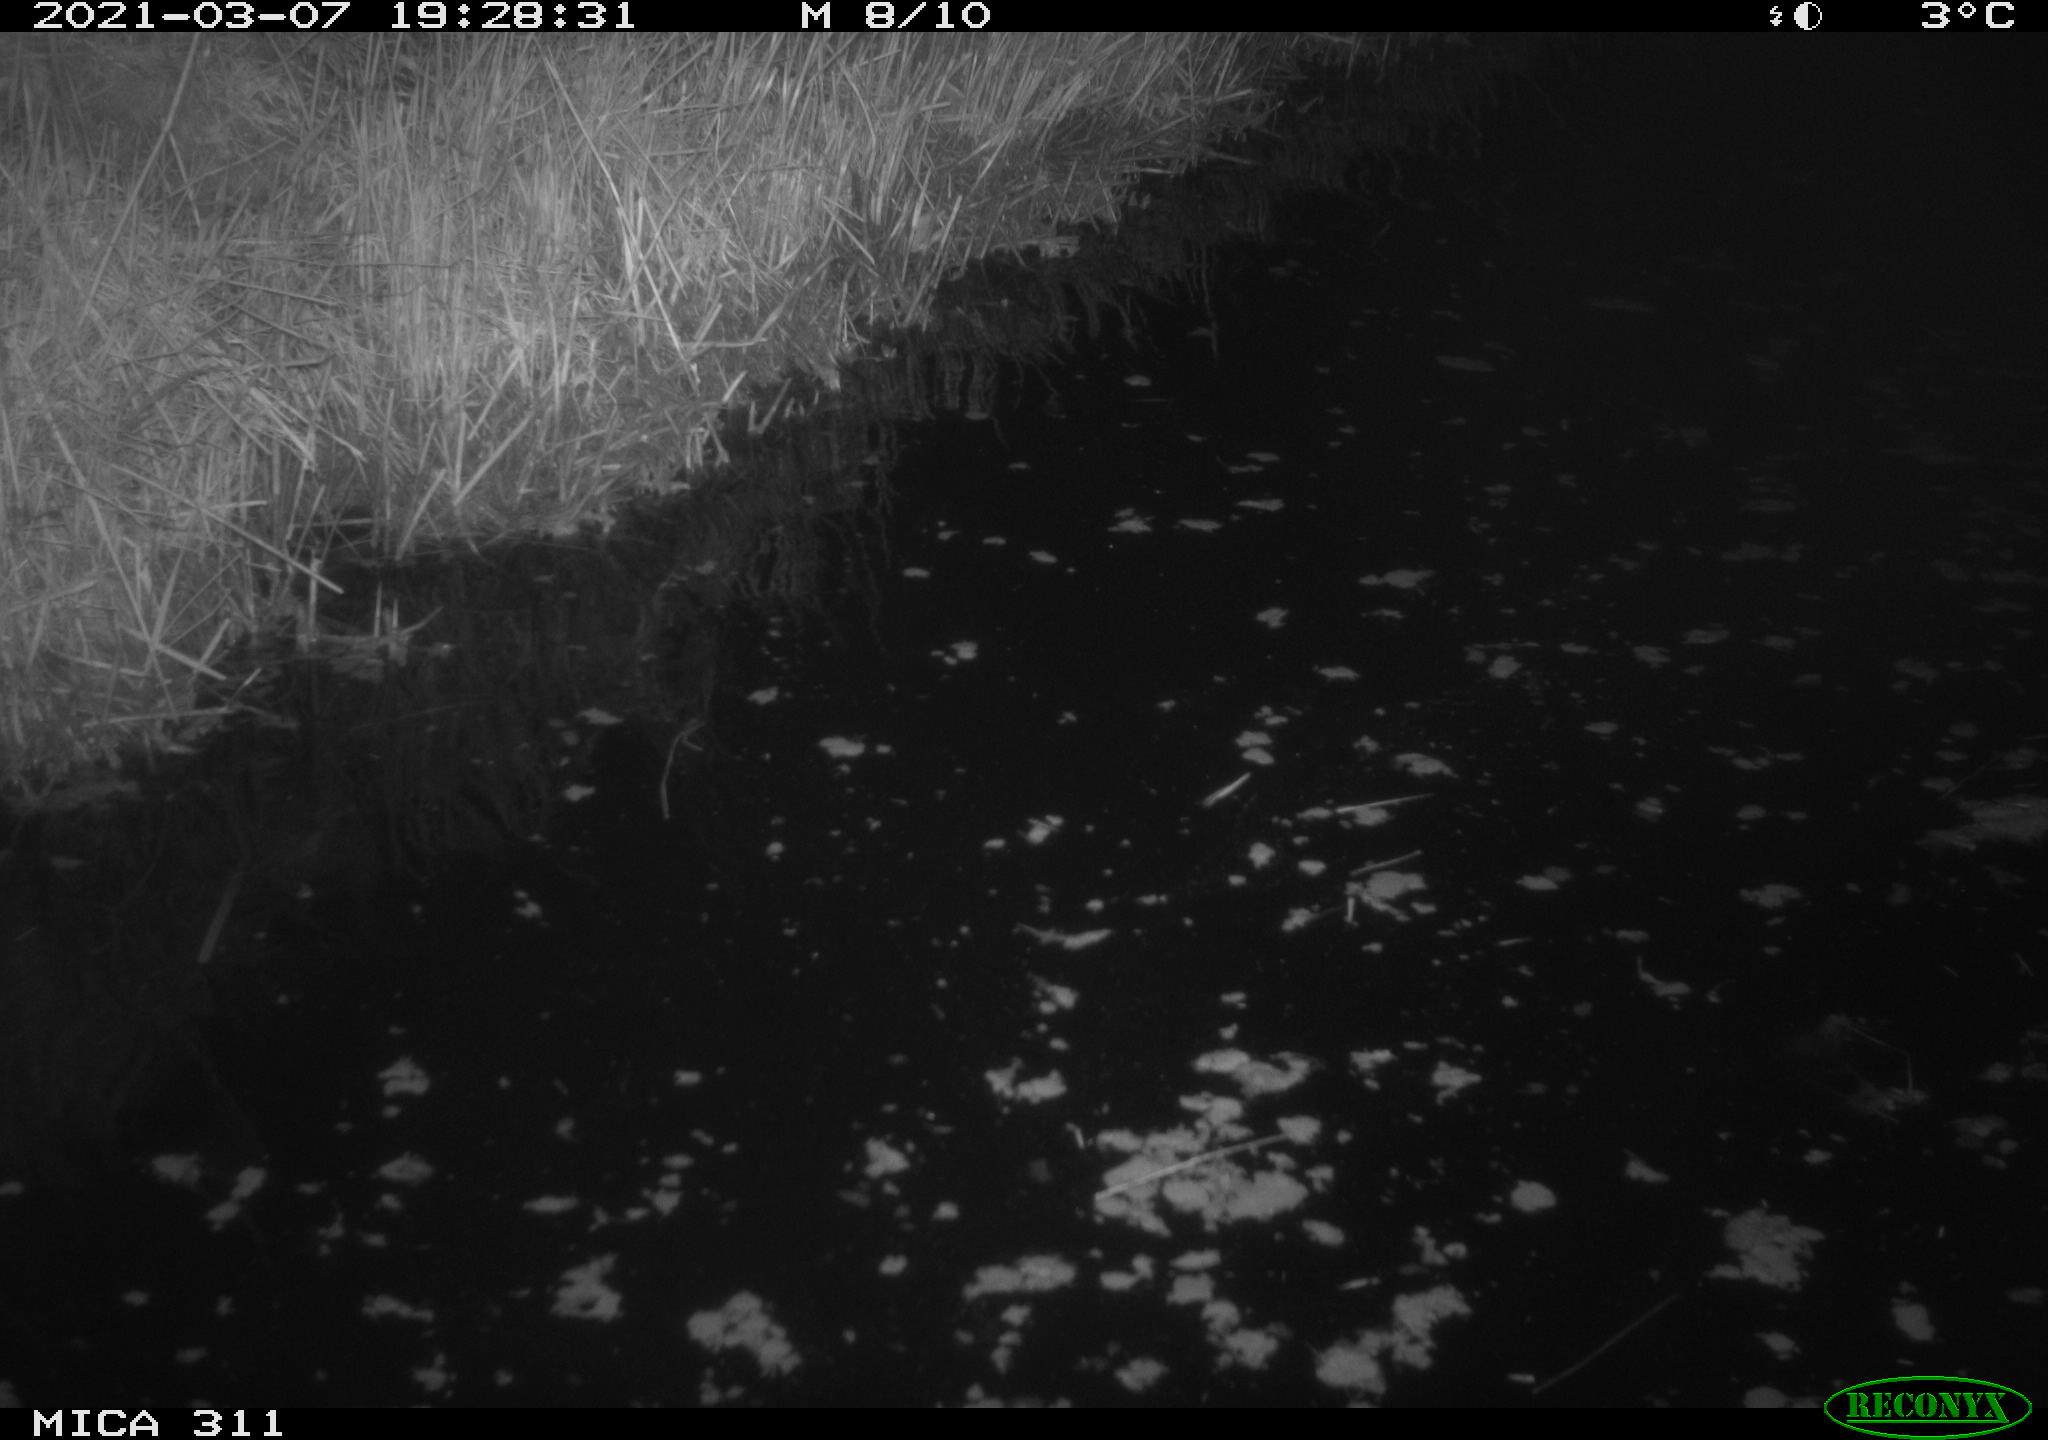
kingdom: Animalia
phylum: Chordata
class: Aves
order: Anseriformes
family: Anatidae
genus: Anas
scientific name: Anas platyrhynchos
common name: Mallard
